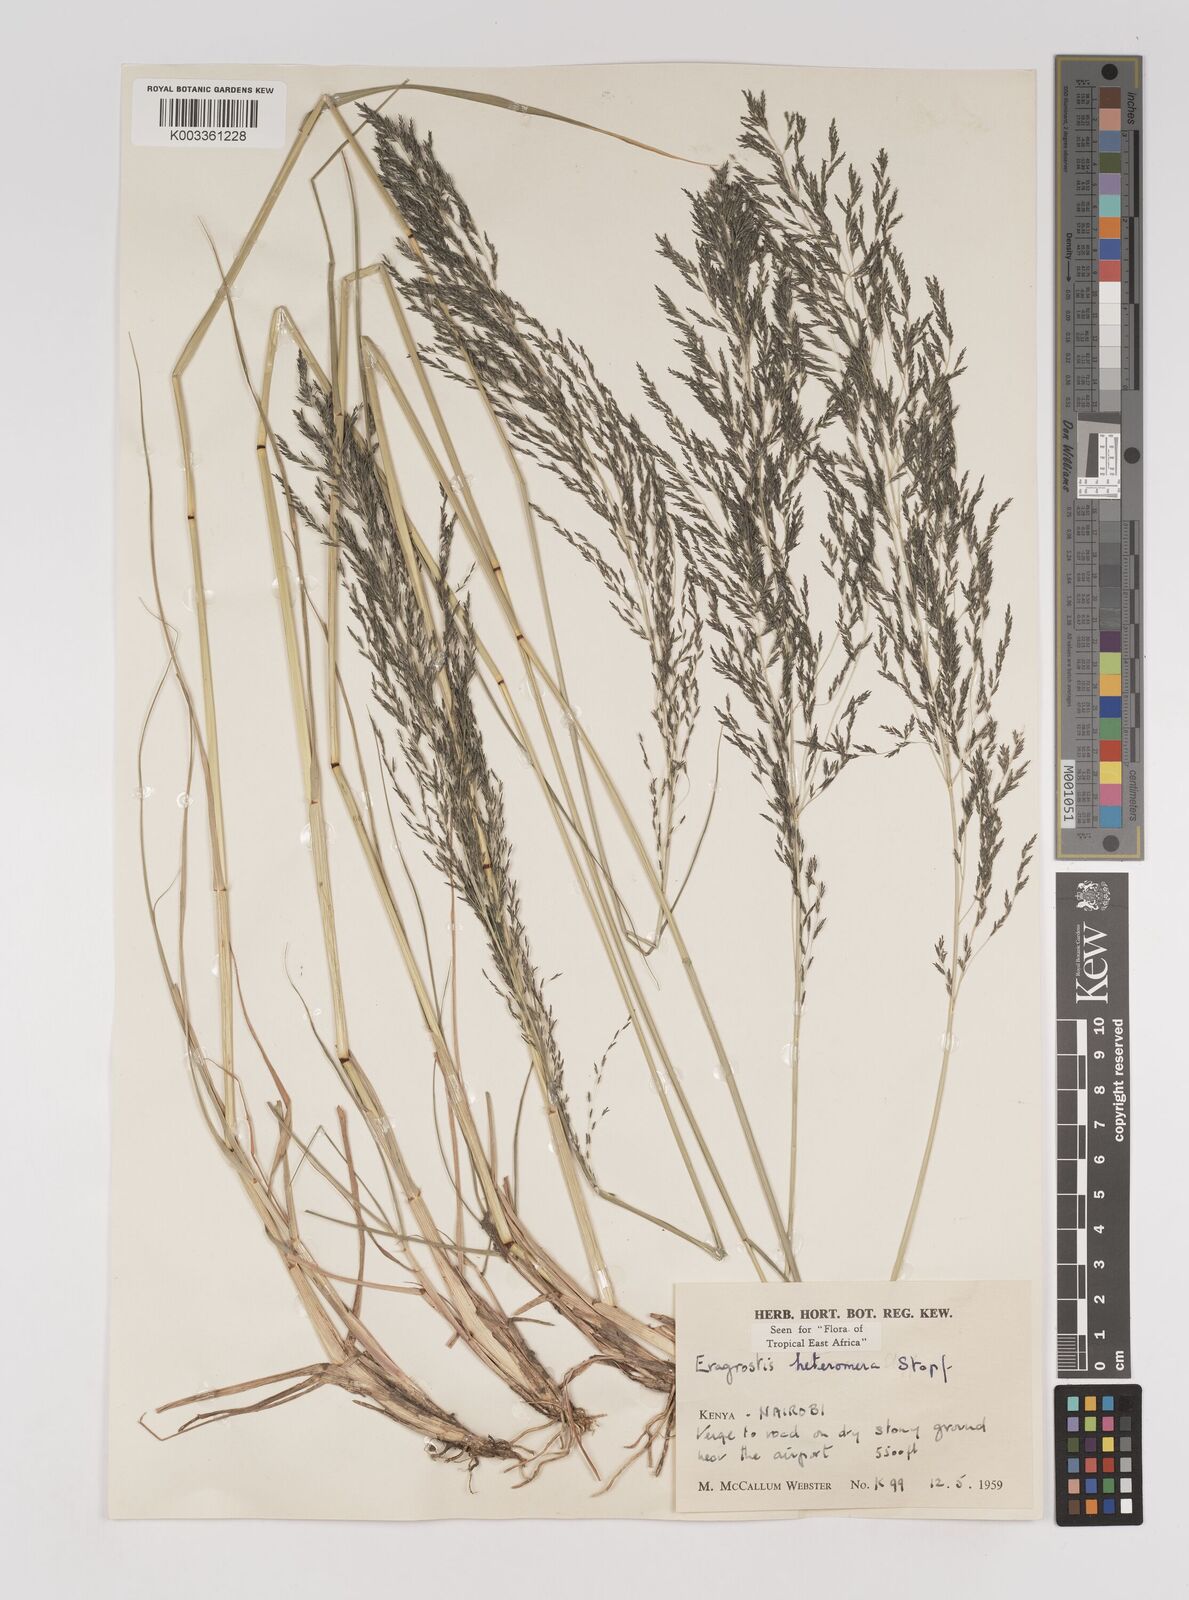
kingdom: Plantae
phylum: Tracheophyta
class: Liliopsida
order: Poales
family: Poaceae
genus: Eragrostis
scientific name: Eragrostis heteromera
